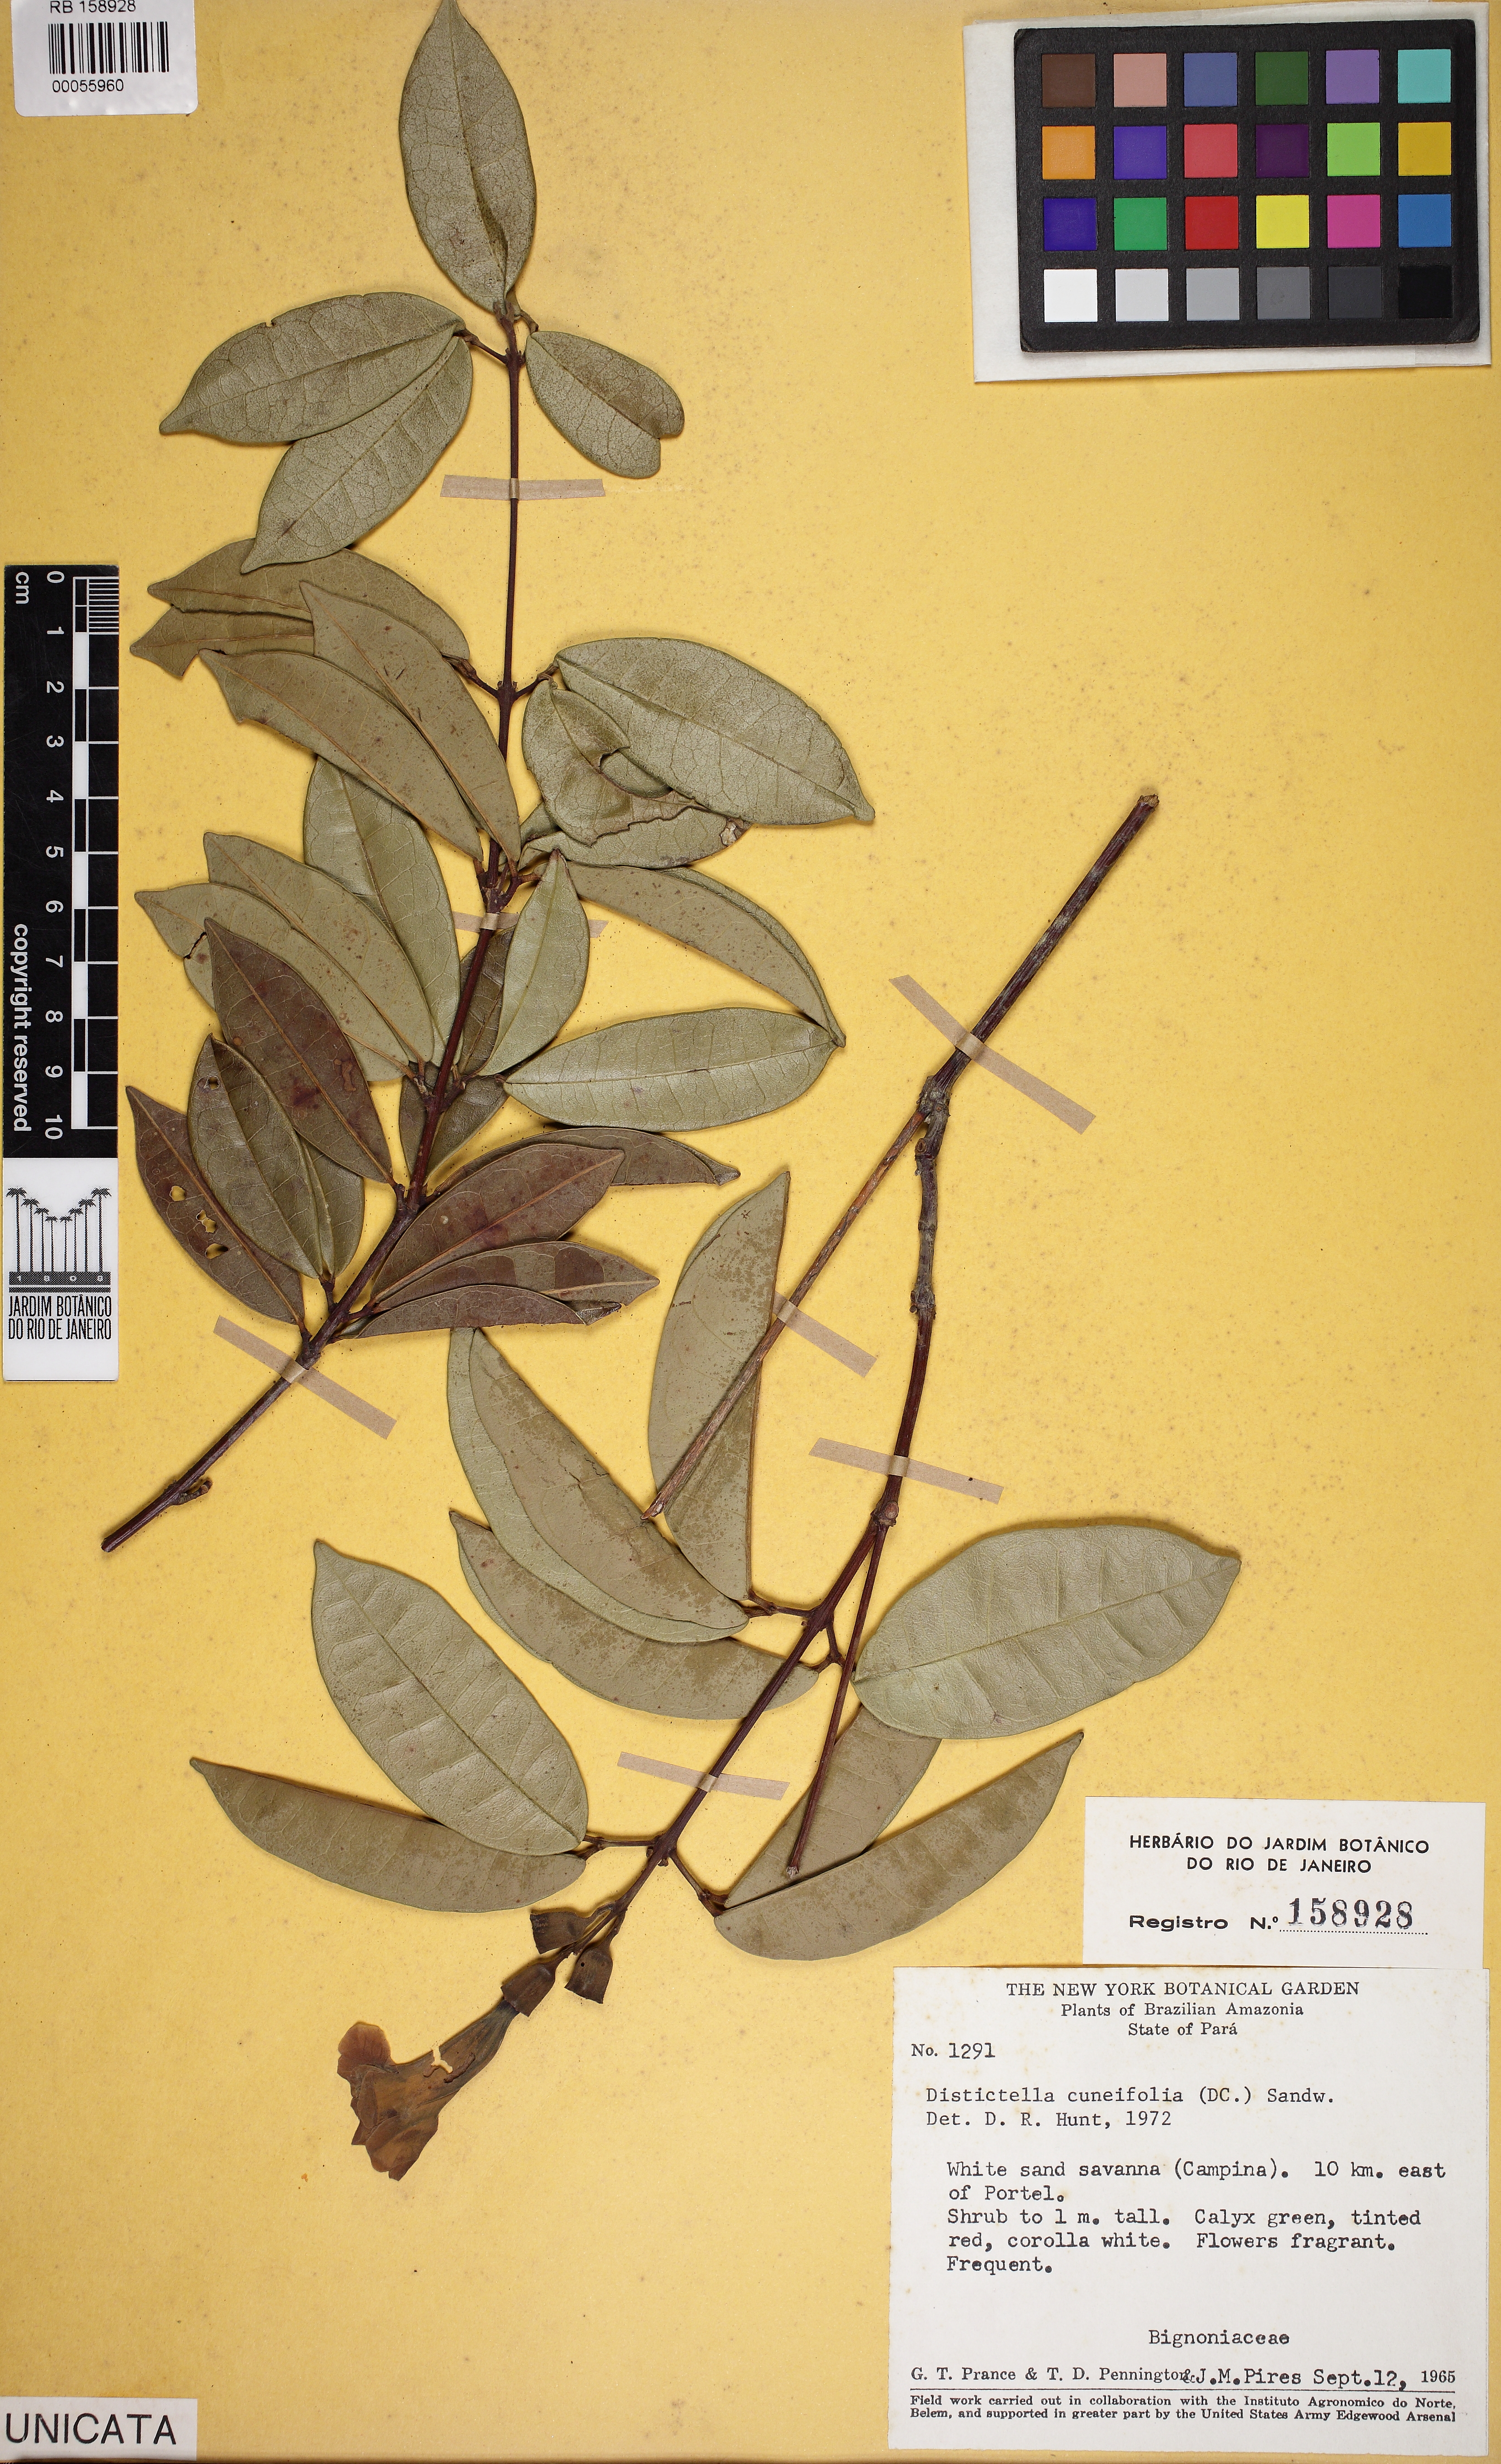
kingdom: Plantae
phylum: Tracheophyta
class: Magnoliopsida
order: Lamiales
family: Bignoniaceae
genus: Amphilophium
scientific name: Amphilophium cuneifolium
